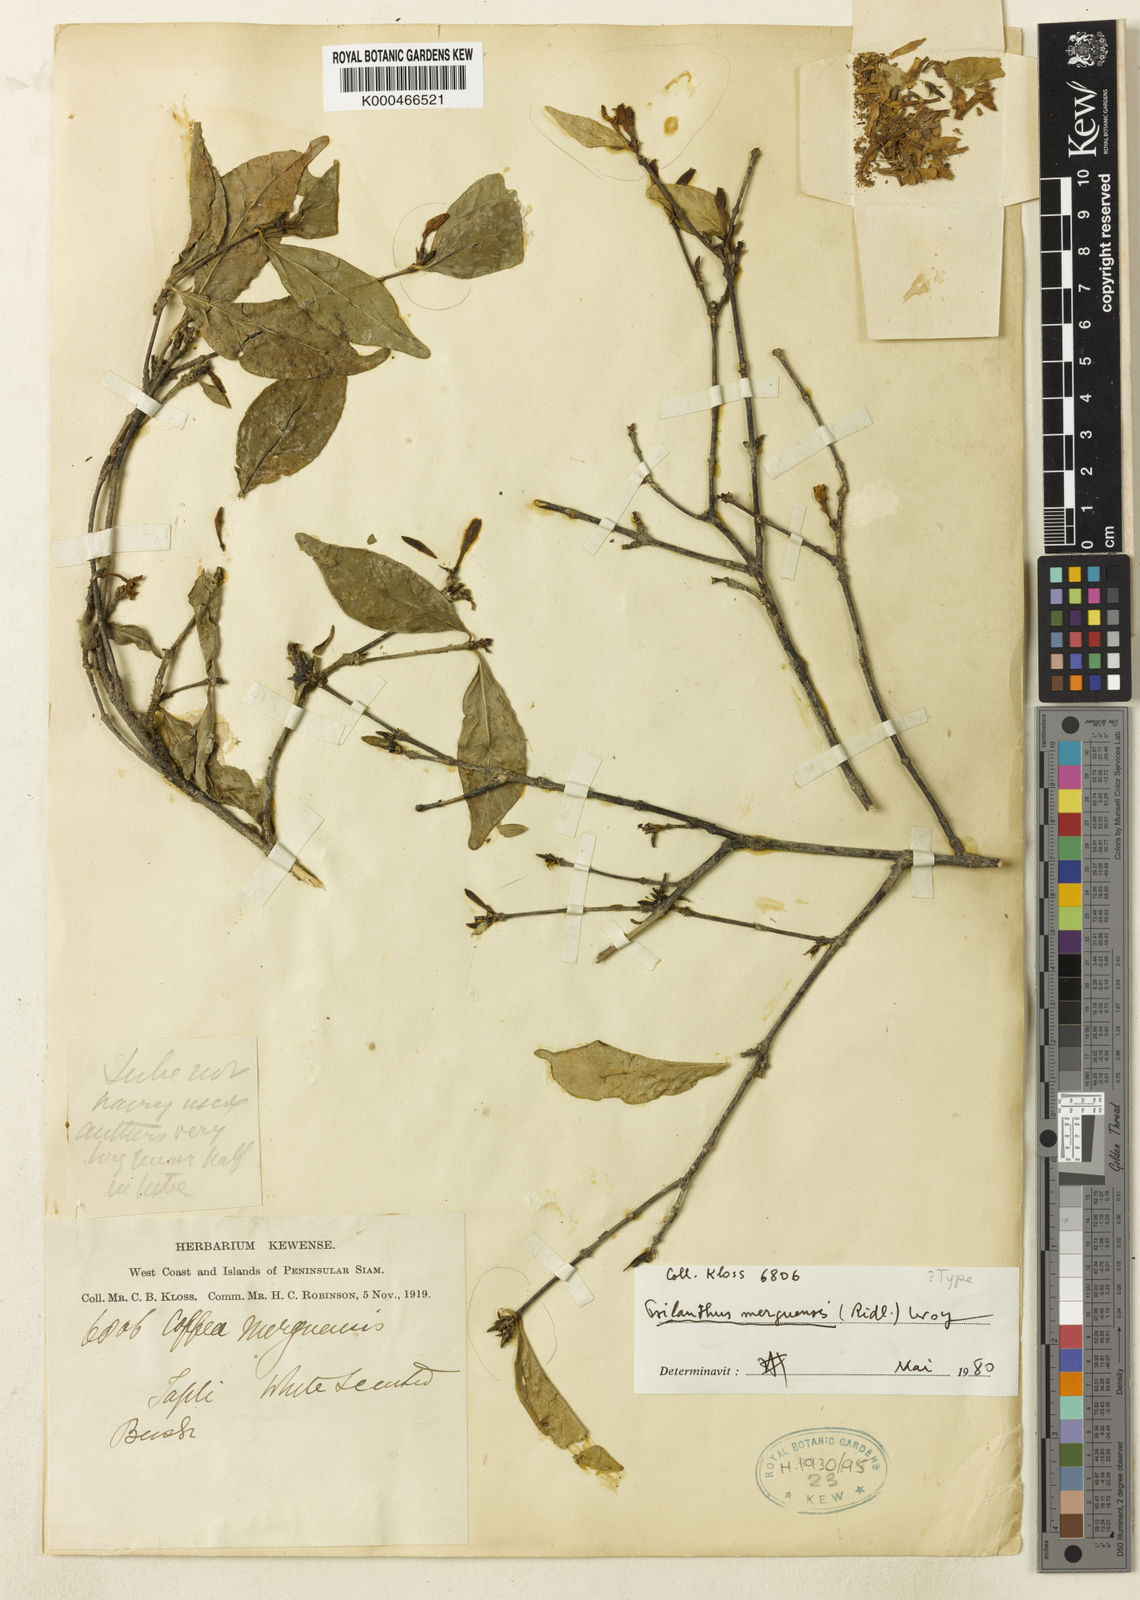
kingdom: Plantae
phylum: Tracheophyta
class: Magnoliopsida
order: Gentianales
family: Rubiaceae
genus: Coffea
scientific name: Coffea merguensis
